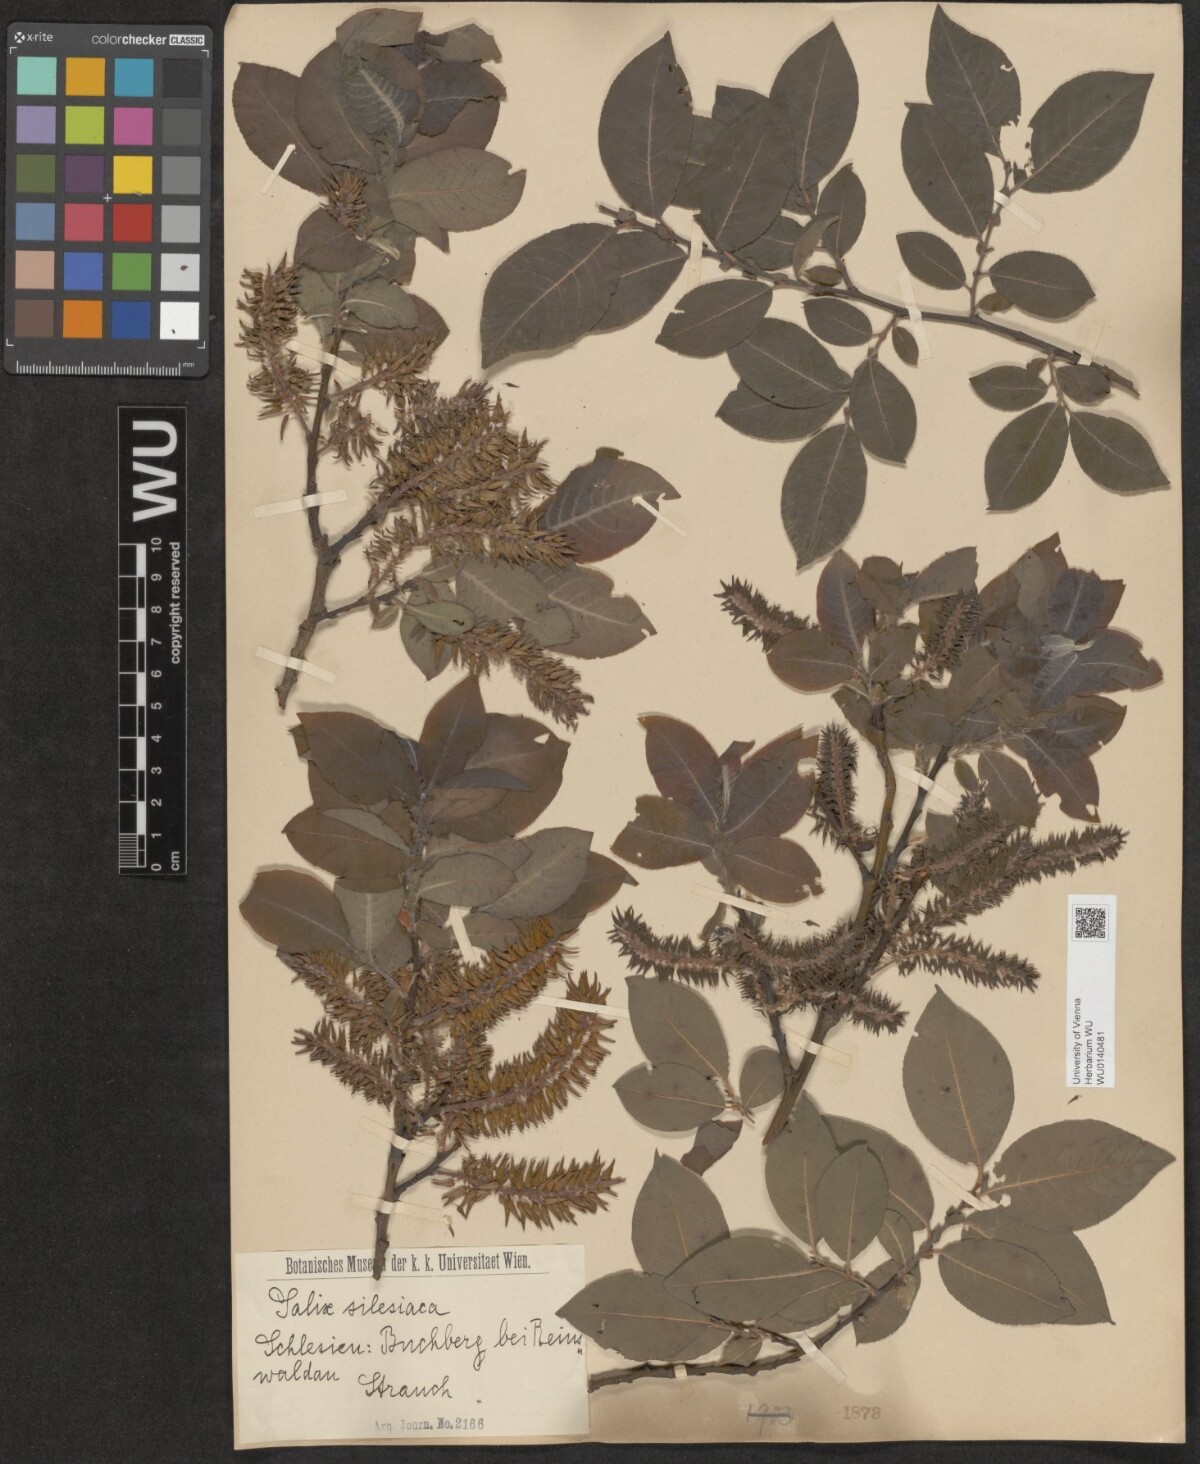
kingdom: Plantae
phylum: Tracheophyta
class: Magnoliopsida
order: Malpighiales
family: Salicaceae
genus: Salix
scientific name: Salix silesiaca
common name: Silesian willow
